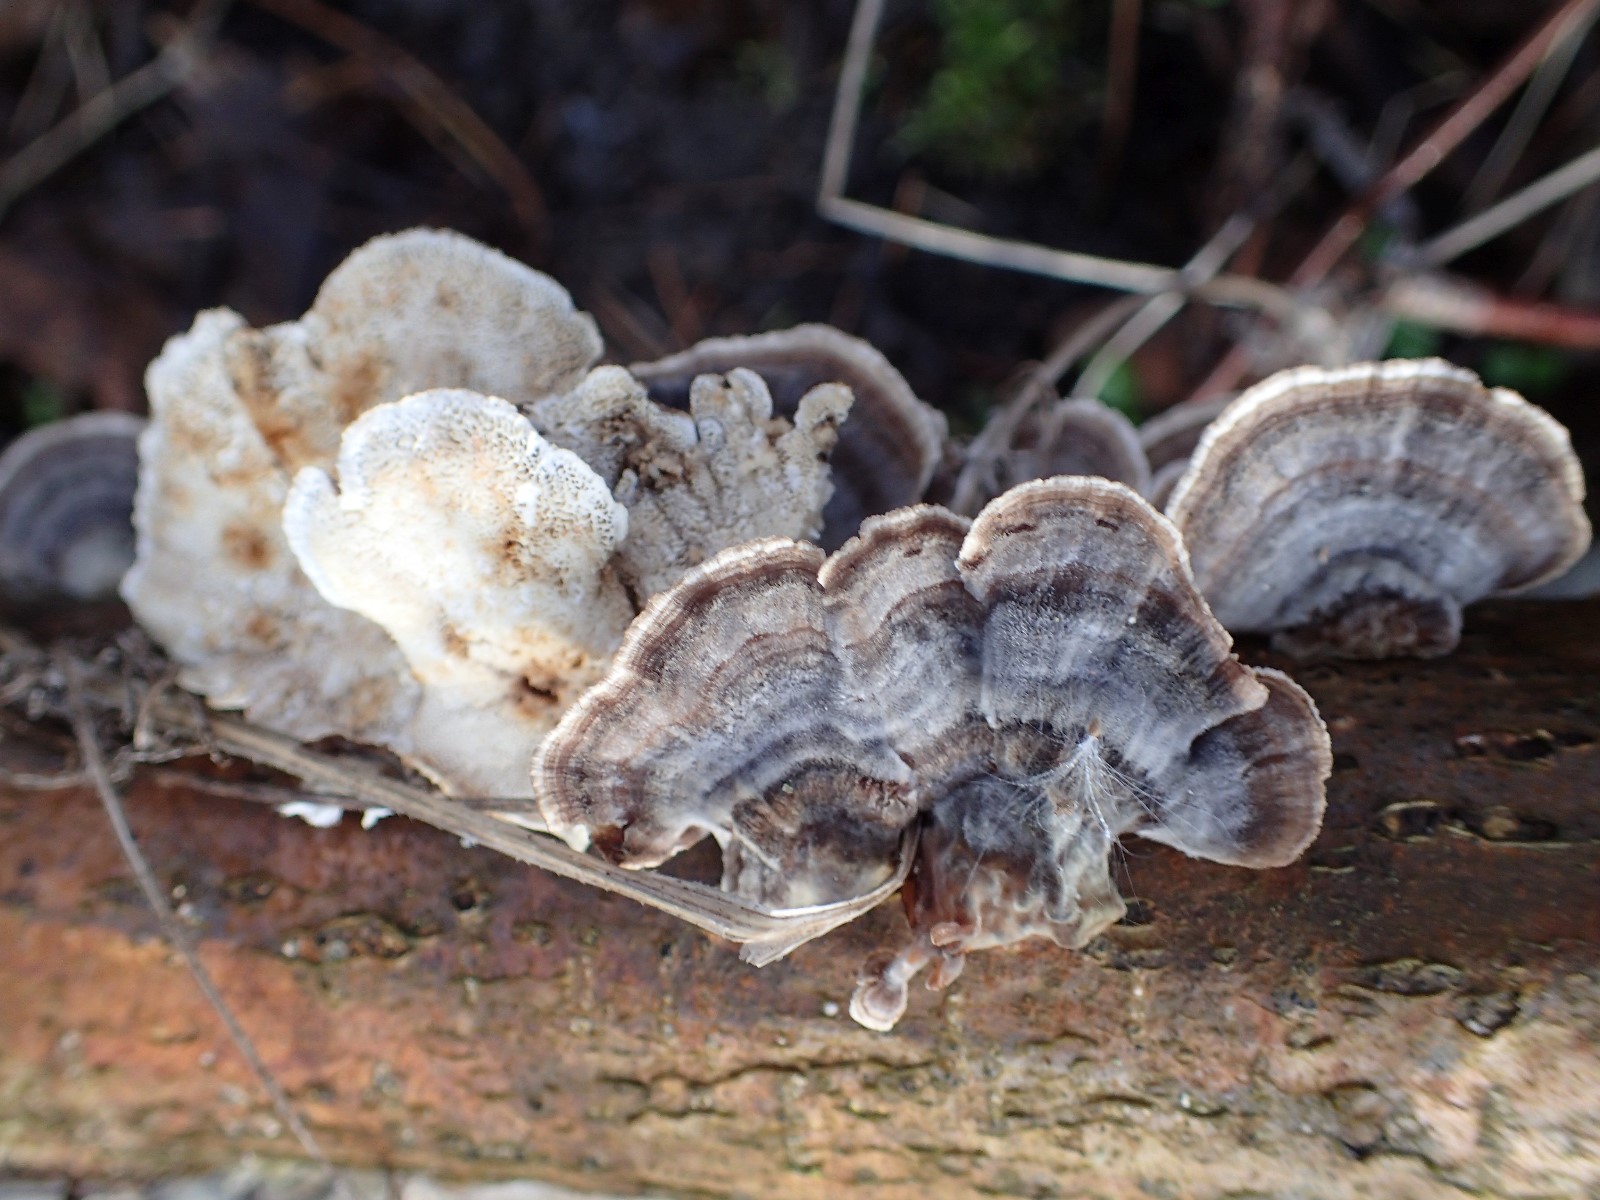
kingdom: Fungi
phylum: Basidiomycota
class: Agaricomycetes
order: Polyporales
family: Polyporaceae
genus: Trametes
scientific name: Trametes versicolor
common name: broget læderporesvamp
